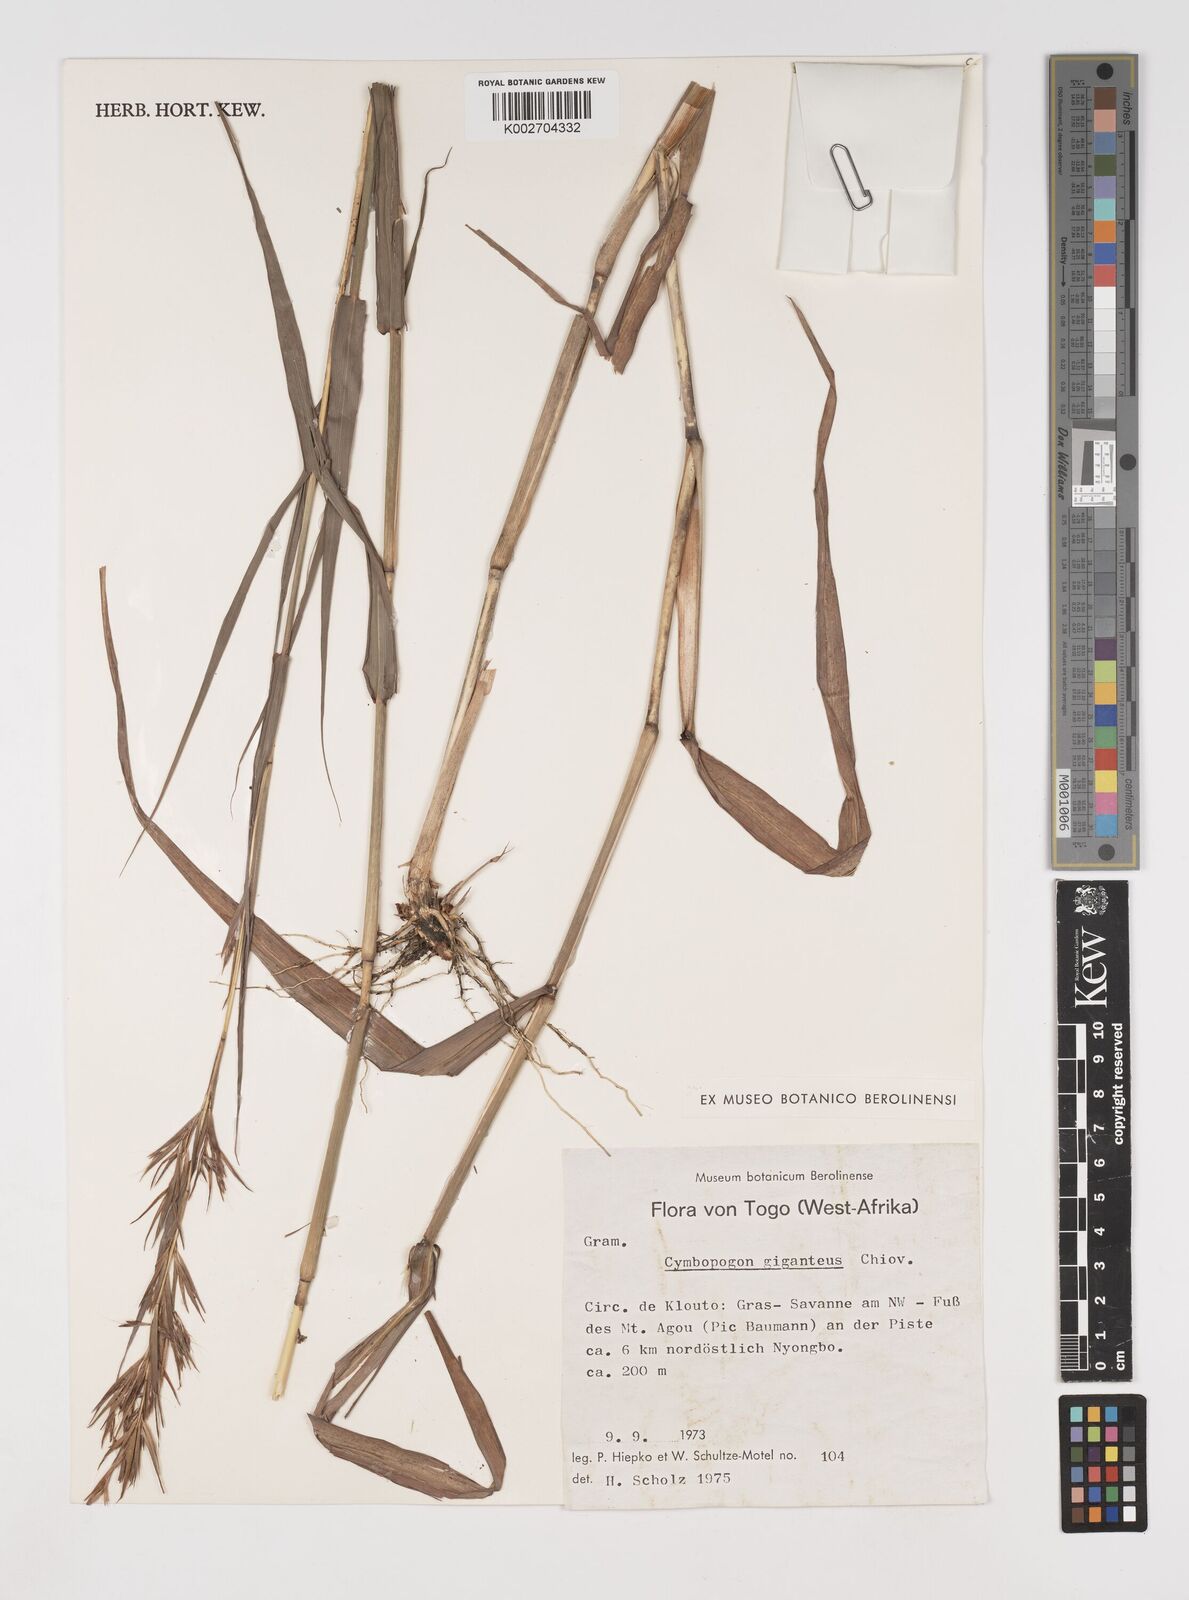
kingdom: Plantae
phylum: Tracheophyta
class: Liliopsida
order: Poales
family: Poaceae
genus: Cymbopogon
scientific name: Cymbopogon giganteus
